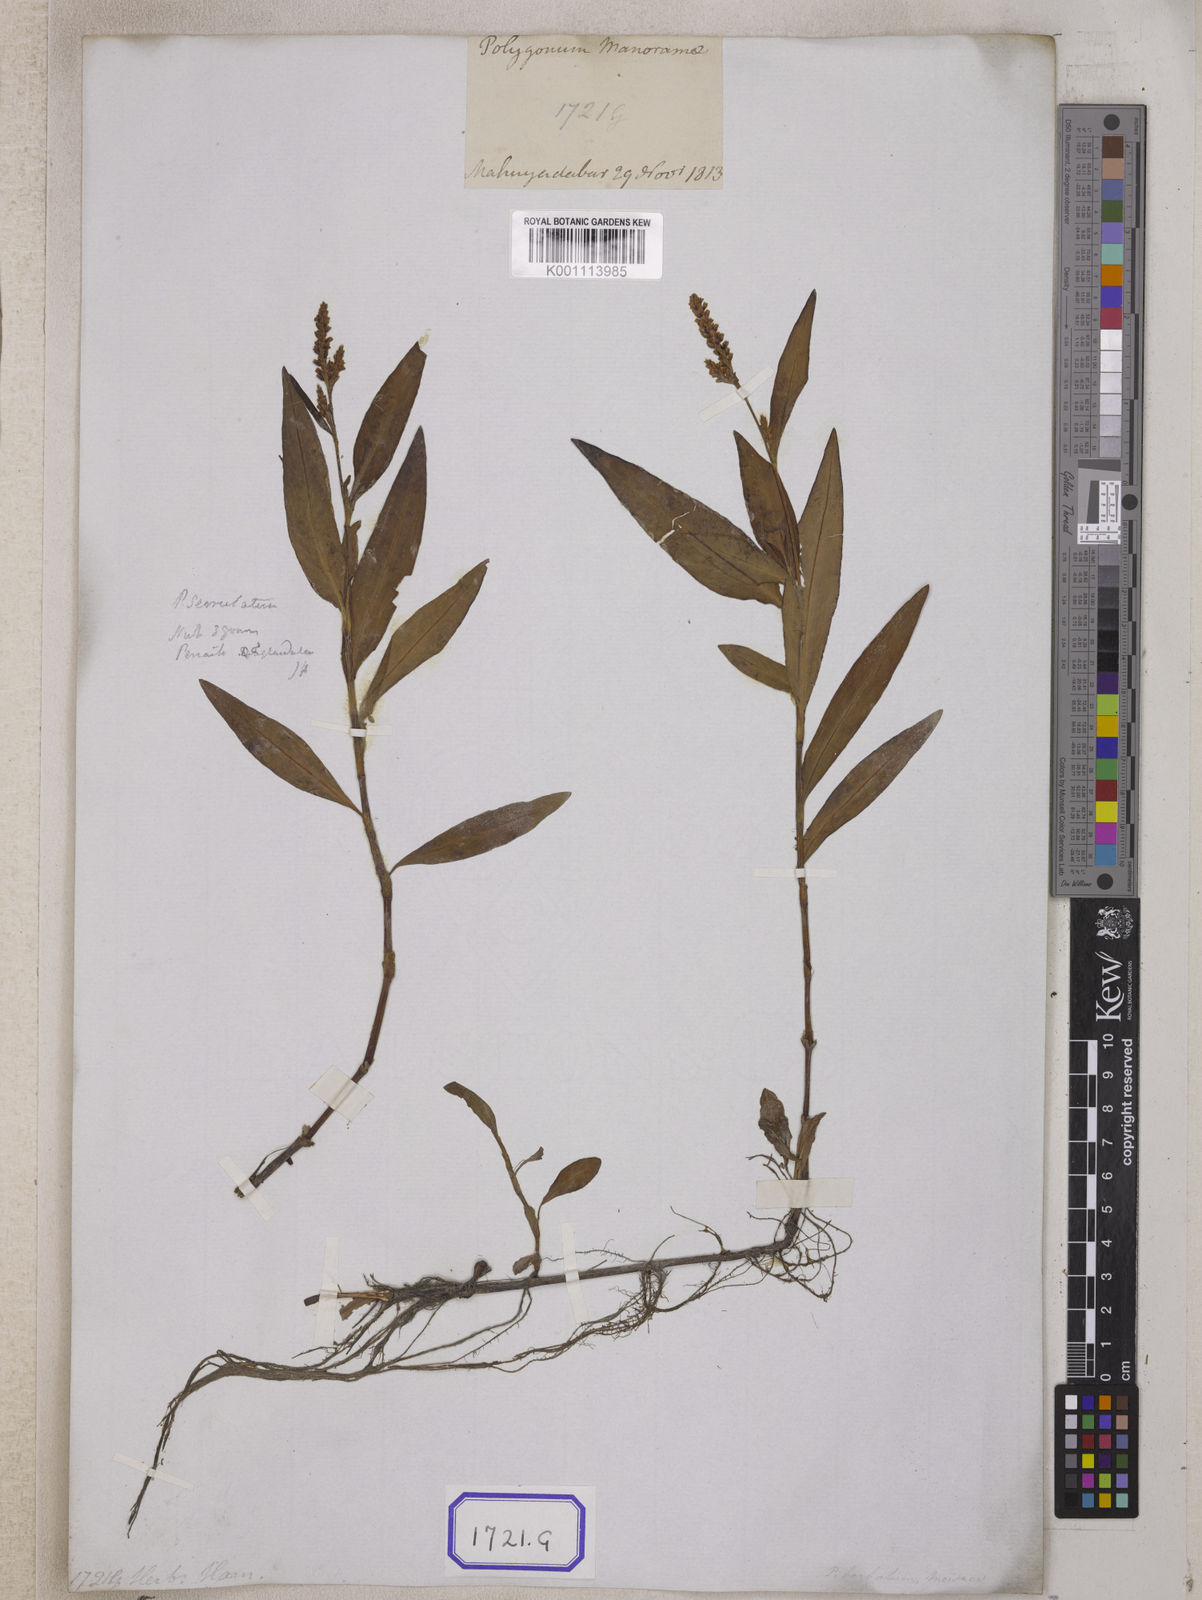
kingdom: Plantae
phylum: Tracheophyta
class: Magnoliopsida
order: Caryophyllales
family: Polygonaceae
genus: Persicaria
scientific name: Persicaria hydropiperoides
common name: Swamp smartweed
